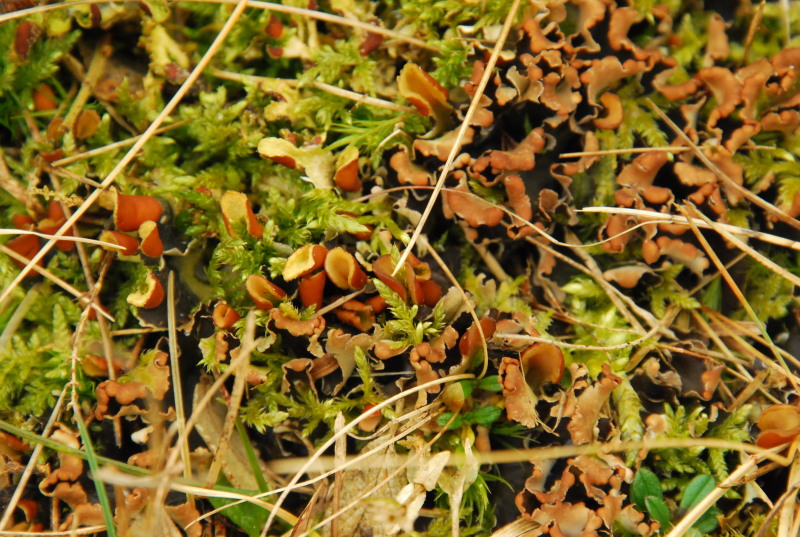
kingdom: Fungi
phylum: Ascomycota
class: Lecanoromycetes
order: Peltigerales
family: Peltigeraceae
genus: Peltigera
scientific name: Peltigera hymenina
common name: hinde-skjoldlav
